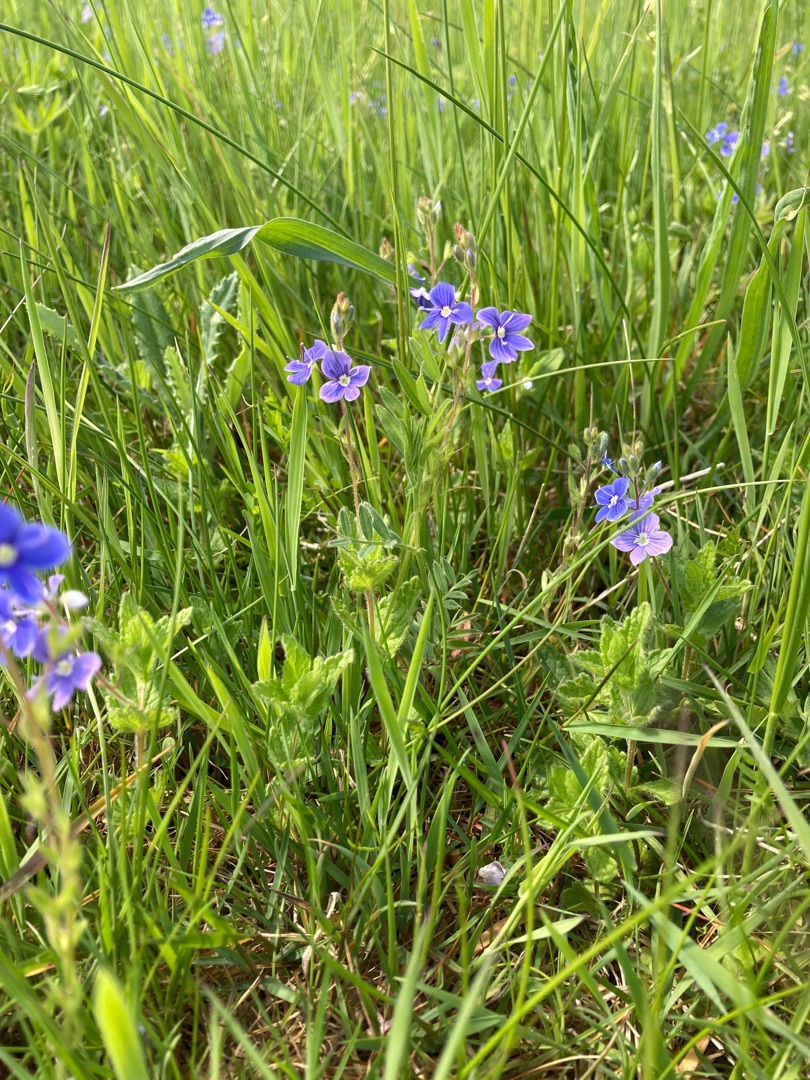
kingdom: Plantae
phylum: Tracheophyta
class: Magnoliopsida
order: Lamiales
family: Plantaginaceae
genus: Veronica
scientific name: Veronica chamaedrys
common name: Tveskægget ærenpris
